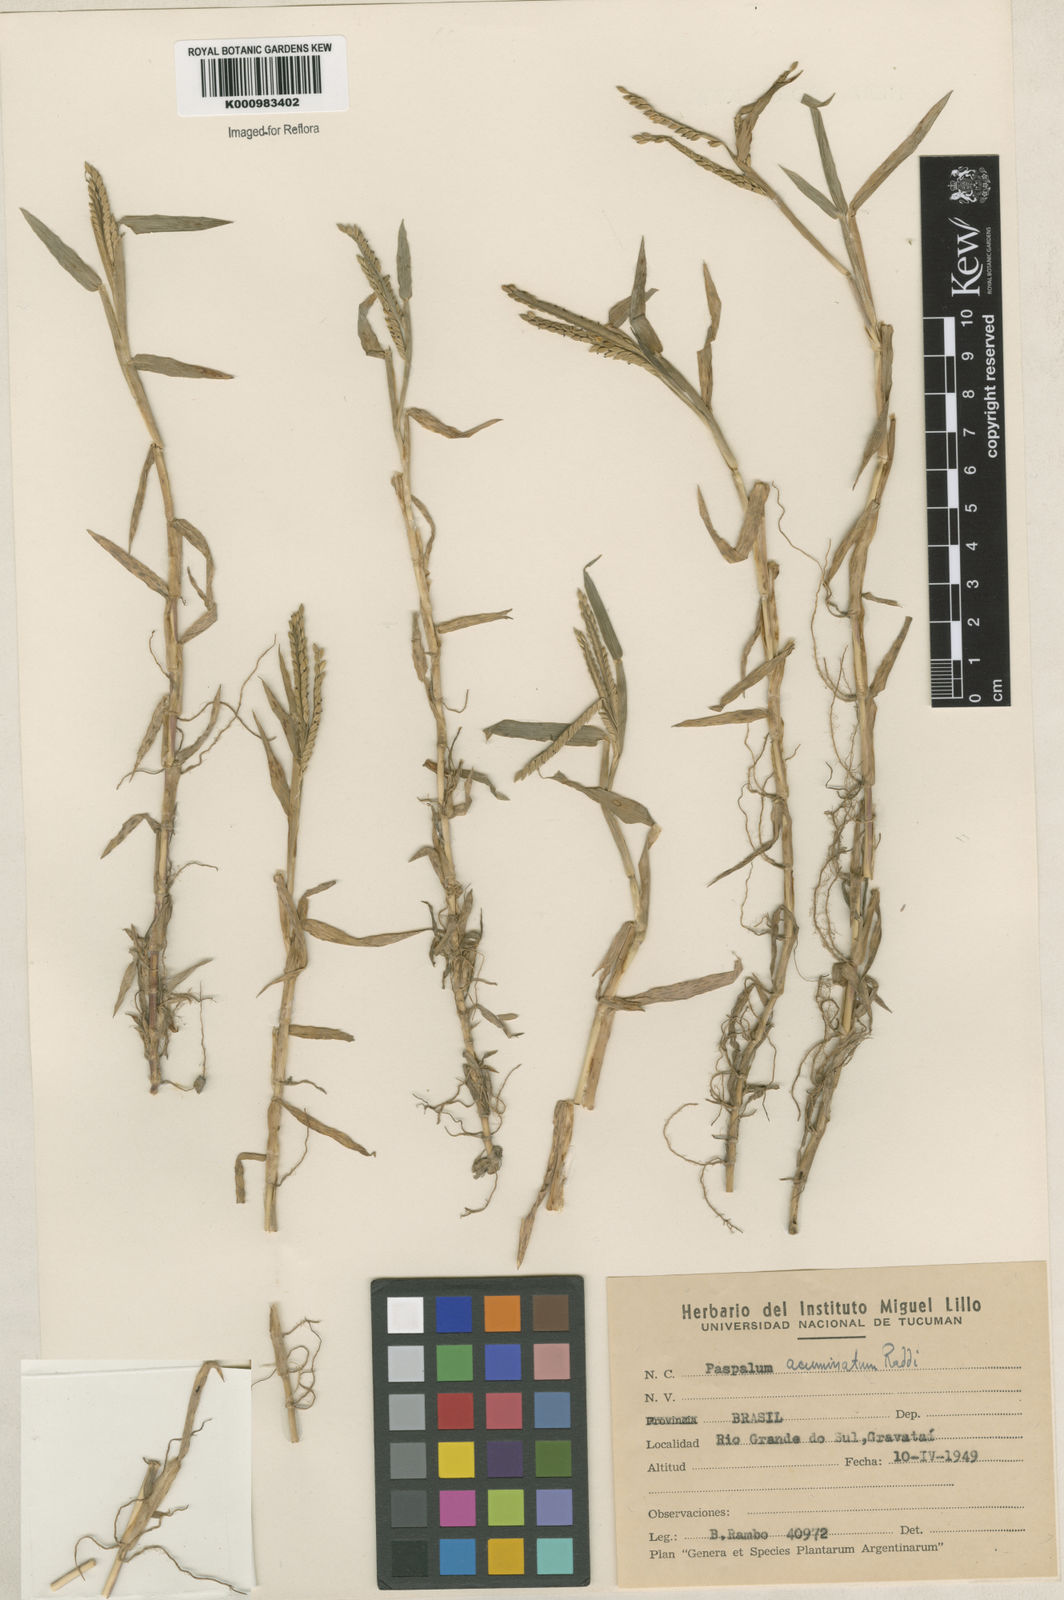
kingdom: Plantae
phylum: Tracheophyta
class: Liliopsida
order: Poales
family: Poaceae
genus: Paspalum
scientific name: Paspalum acuminatum
